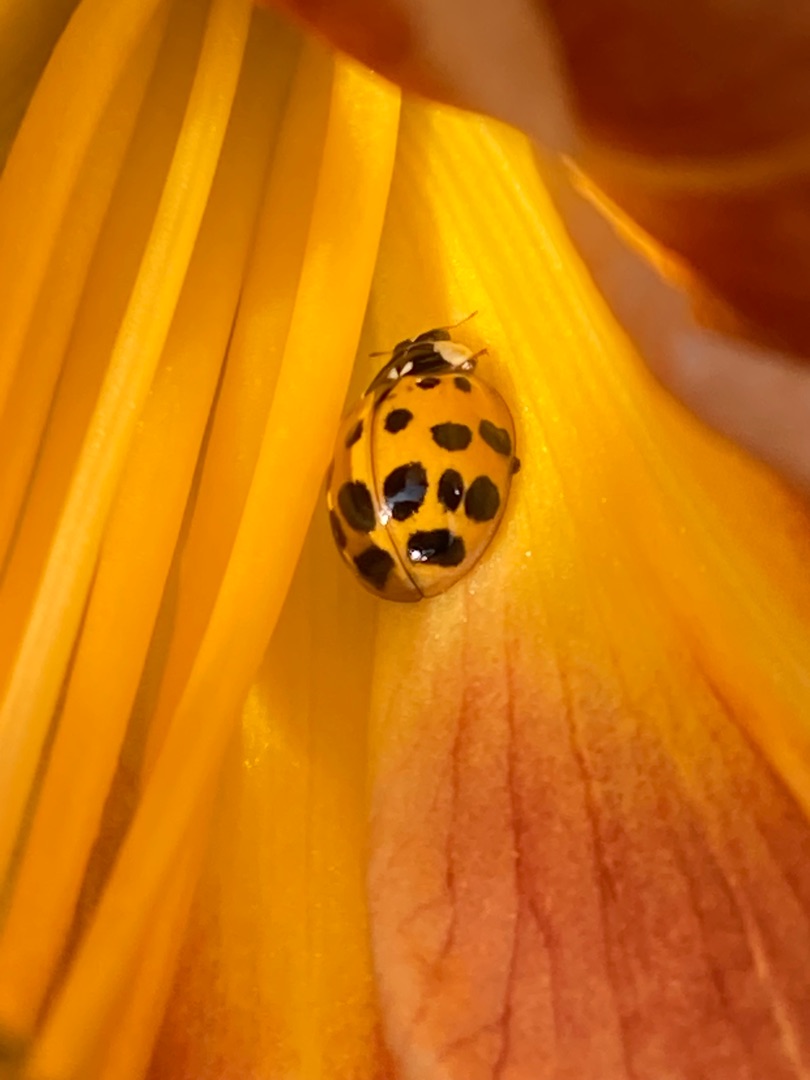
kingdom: Animalia
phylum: Arthropoda
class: Insecta
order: Coleoptera
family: Coccinellidae
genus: Harmonia
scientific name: Harmonia axyridis
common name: Harlekinmariehøne
